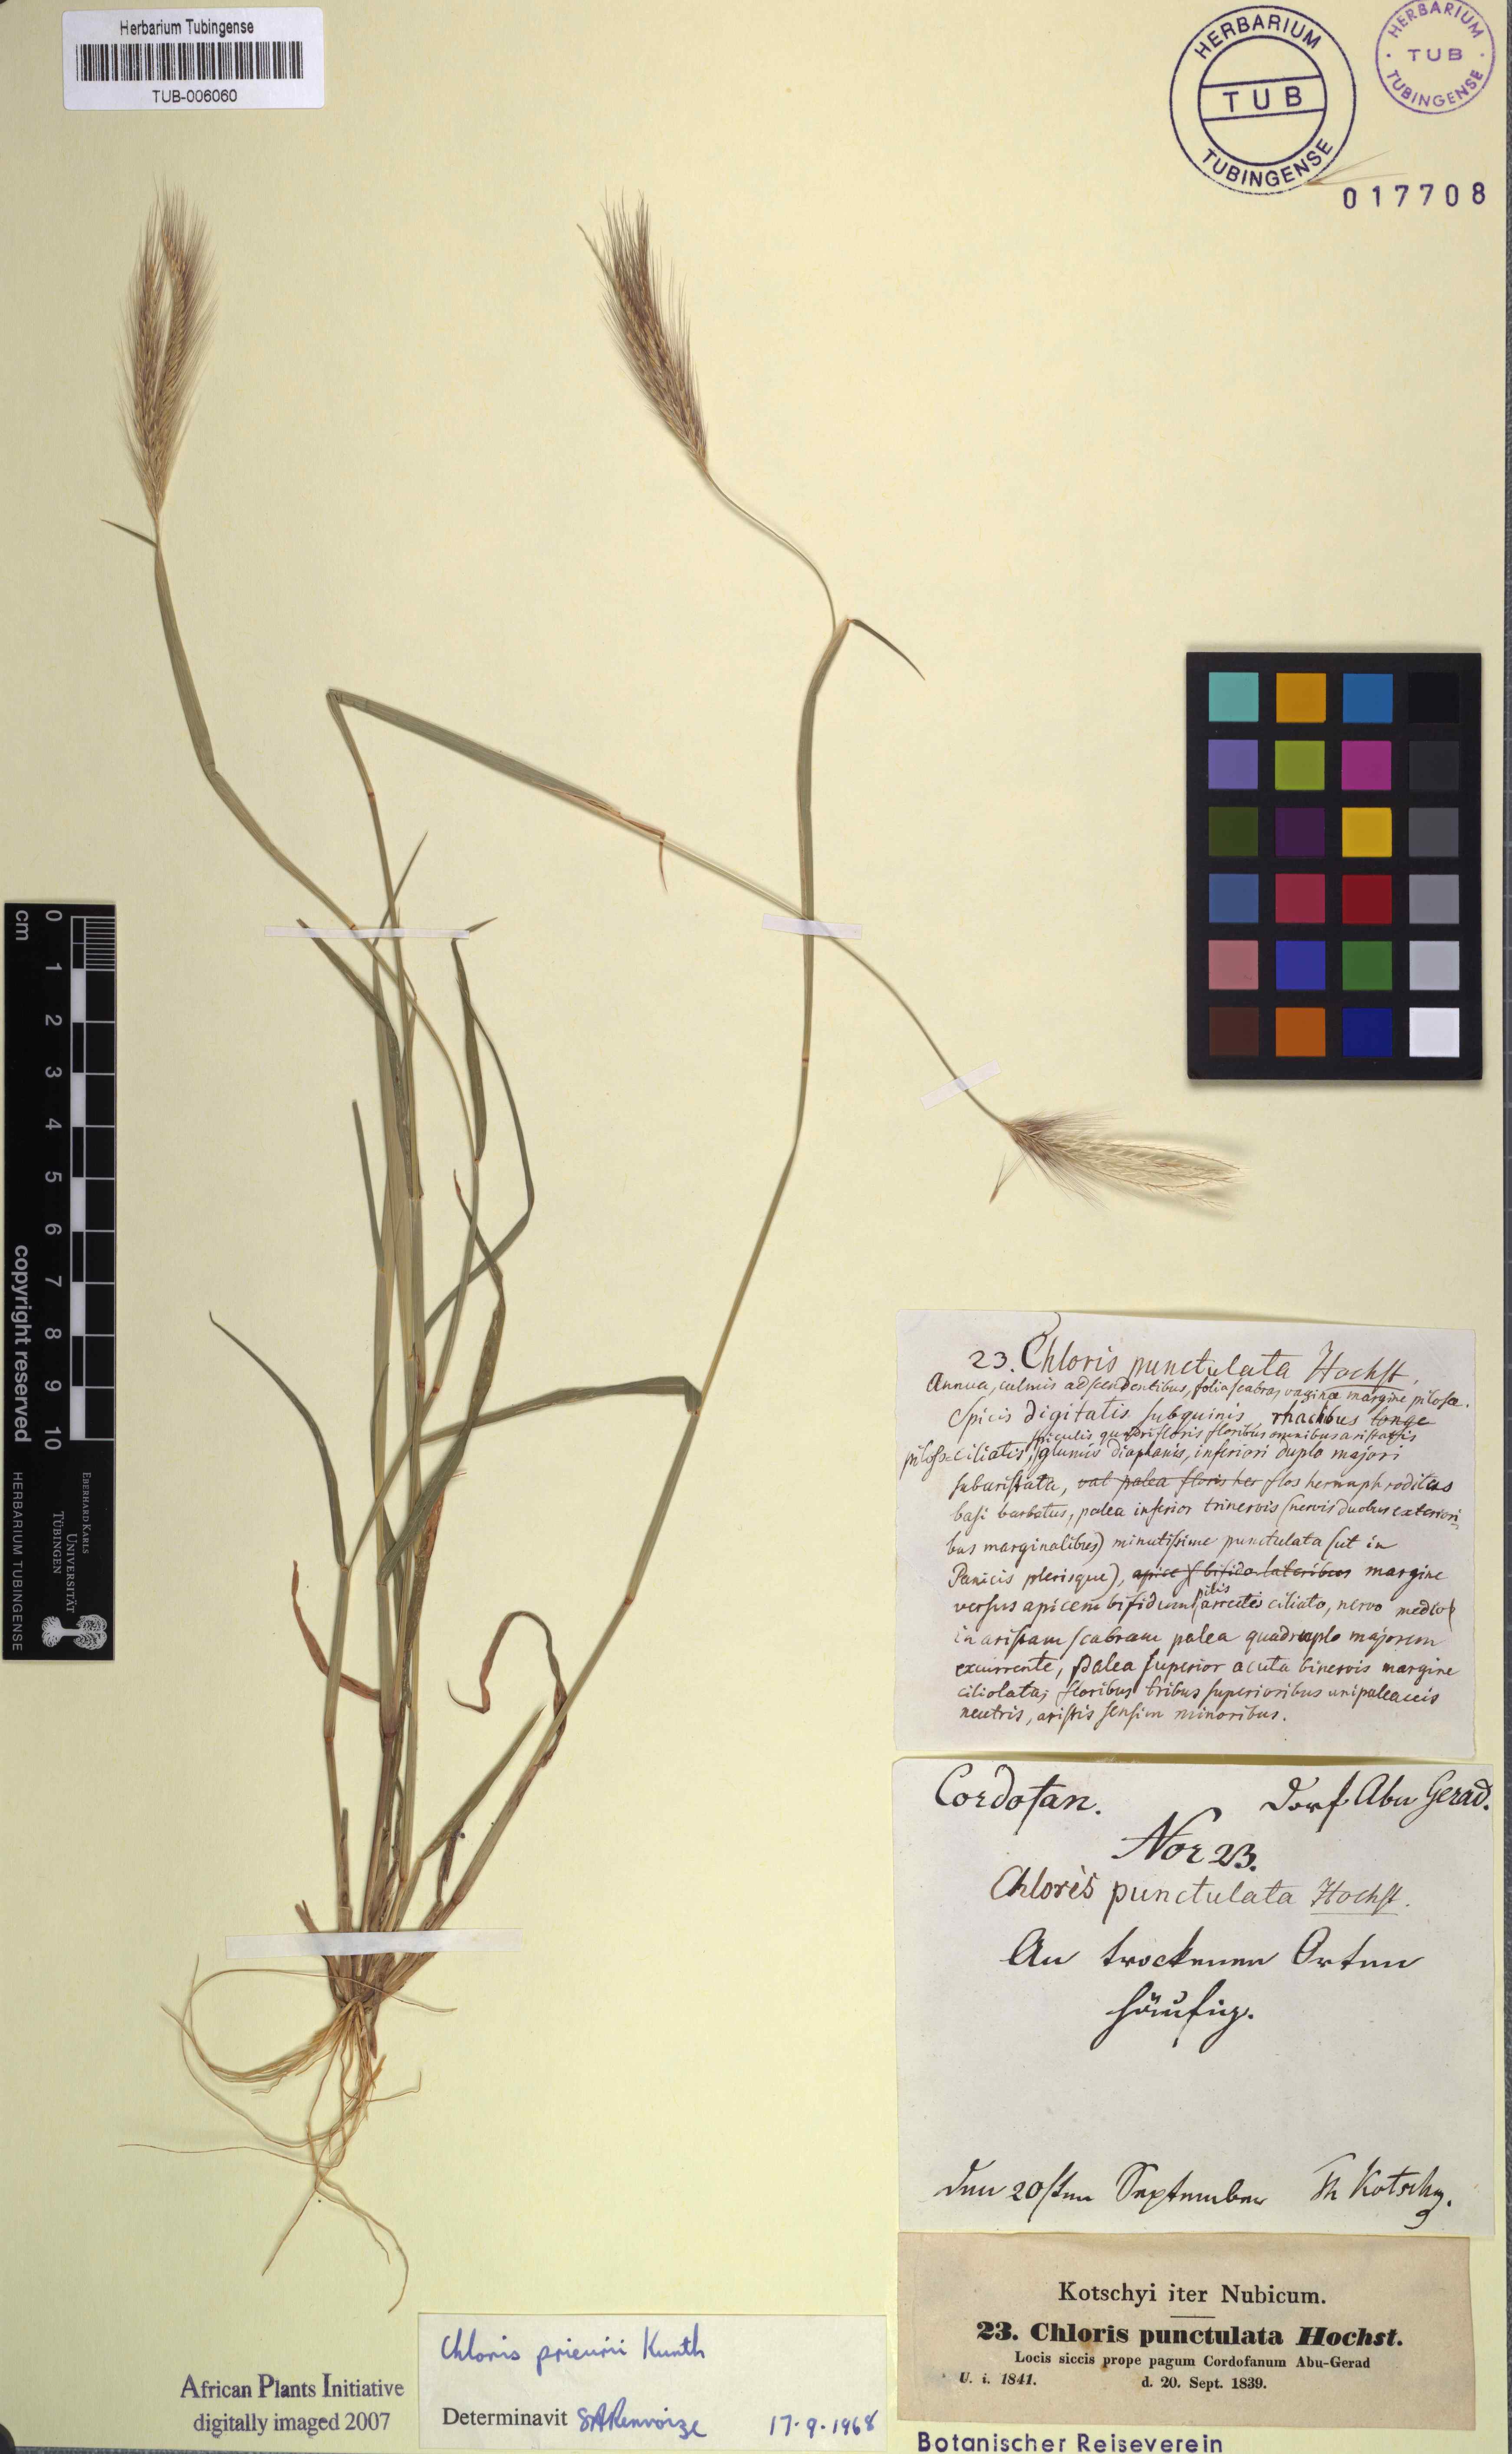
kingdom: Plantae
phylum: Tracheophyta
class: Liliopsida
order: Poales
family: Poaceae
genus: Enteropogon
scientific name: Enteropogon prieurii
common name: Prieur's umbrellagrass
